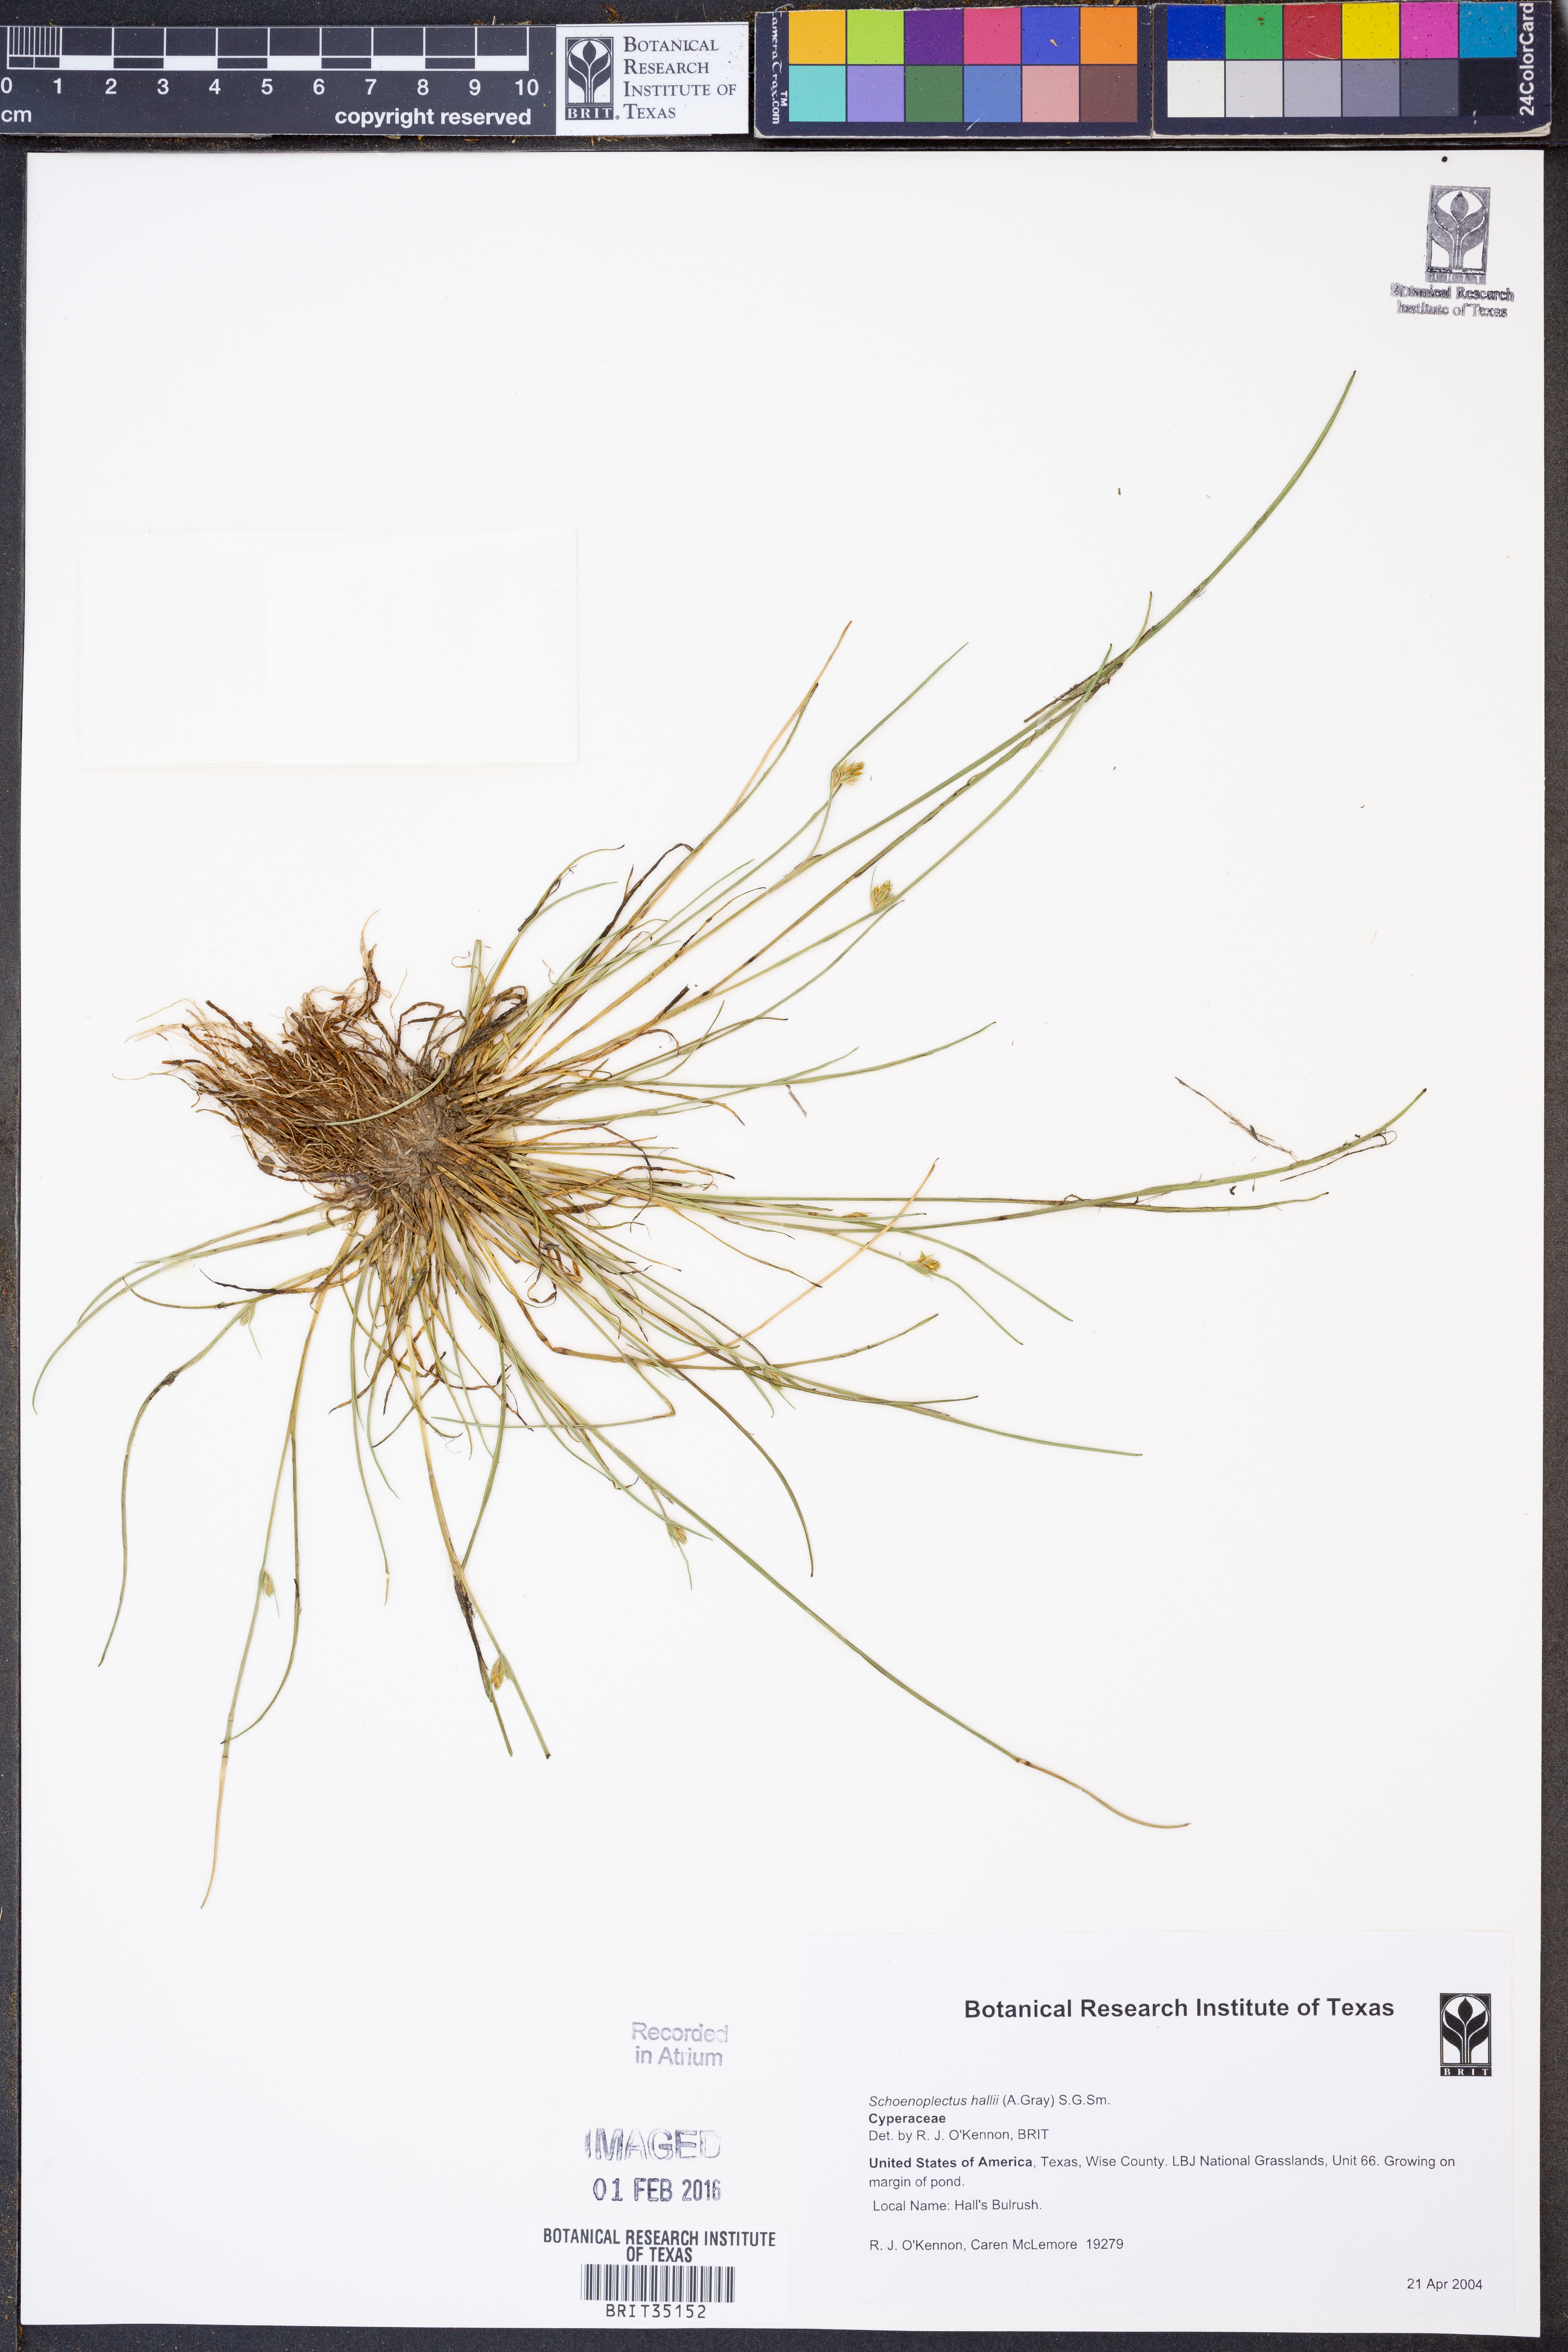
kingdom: Plantae
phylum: Tracheophyta
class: Liliopsida
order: Poales
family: Cyperaceae
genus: Schoenoplectiella
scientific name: Schoenoplectiella hallii
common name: Hall's bullrush
